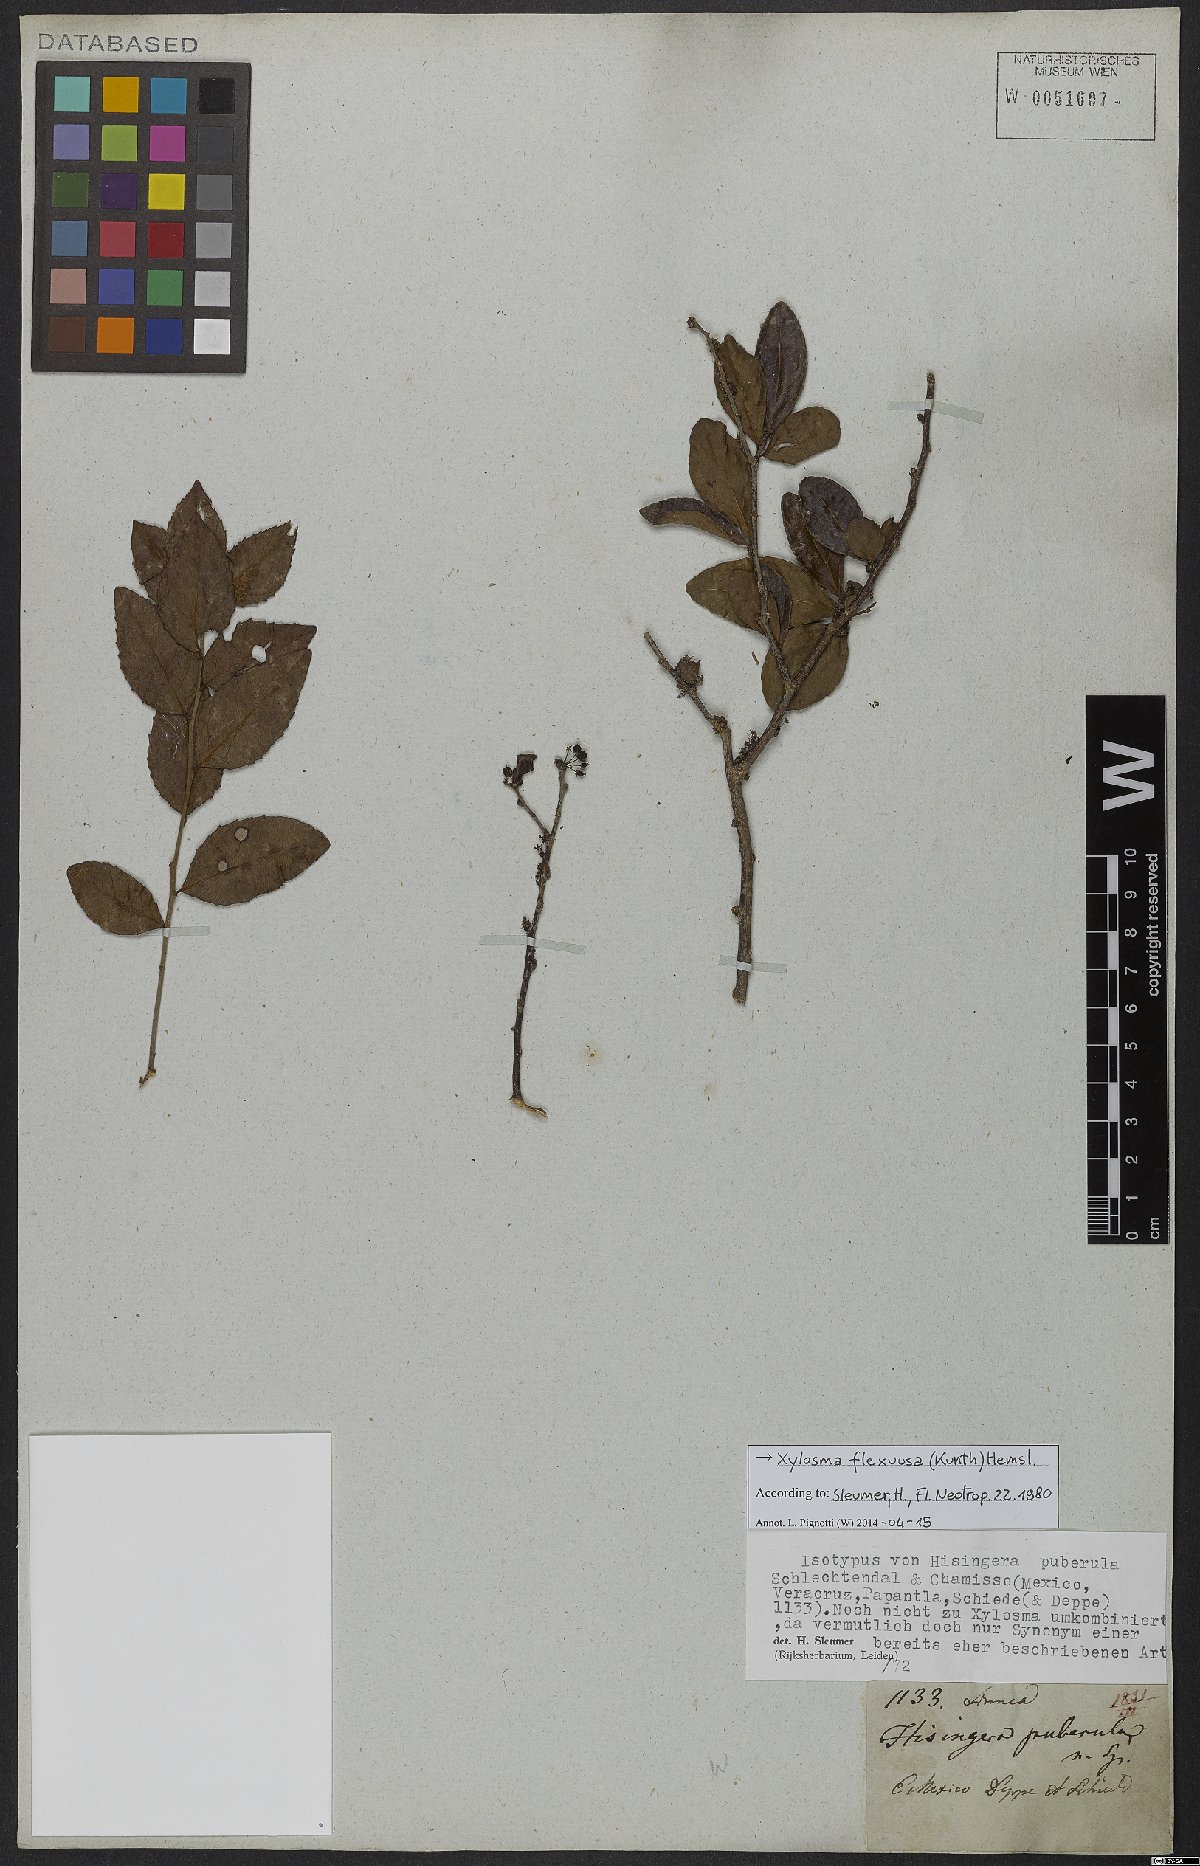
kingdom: Plantae
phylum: Tracheophyta
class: Magnoliopsida
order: Malpighiales
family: Salicaceae
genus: Xylosma
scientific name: Xylosma flexuosa
